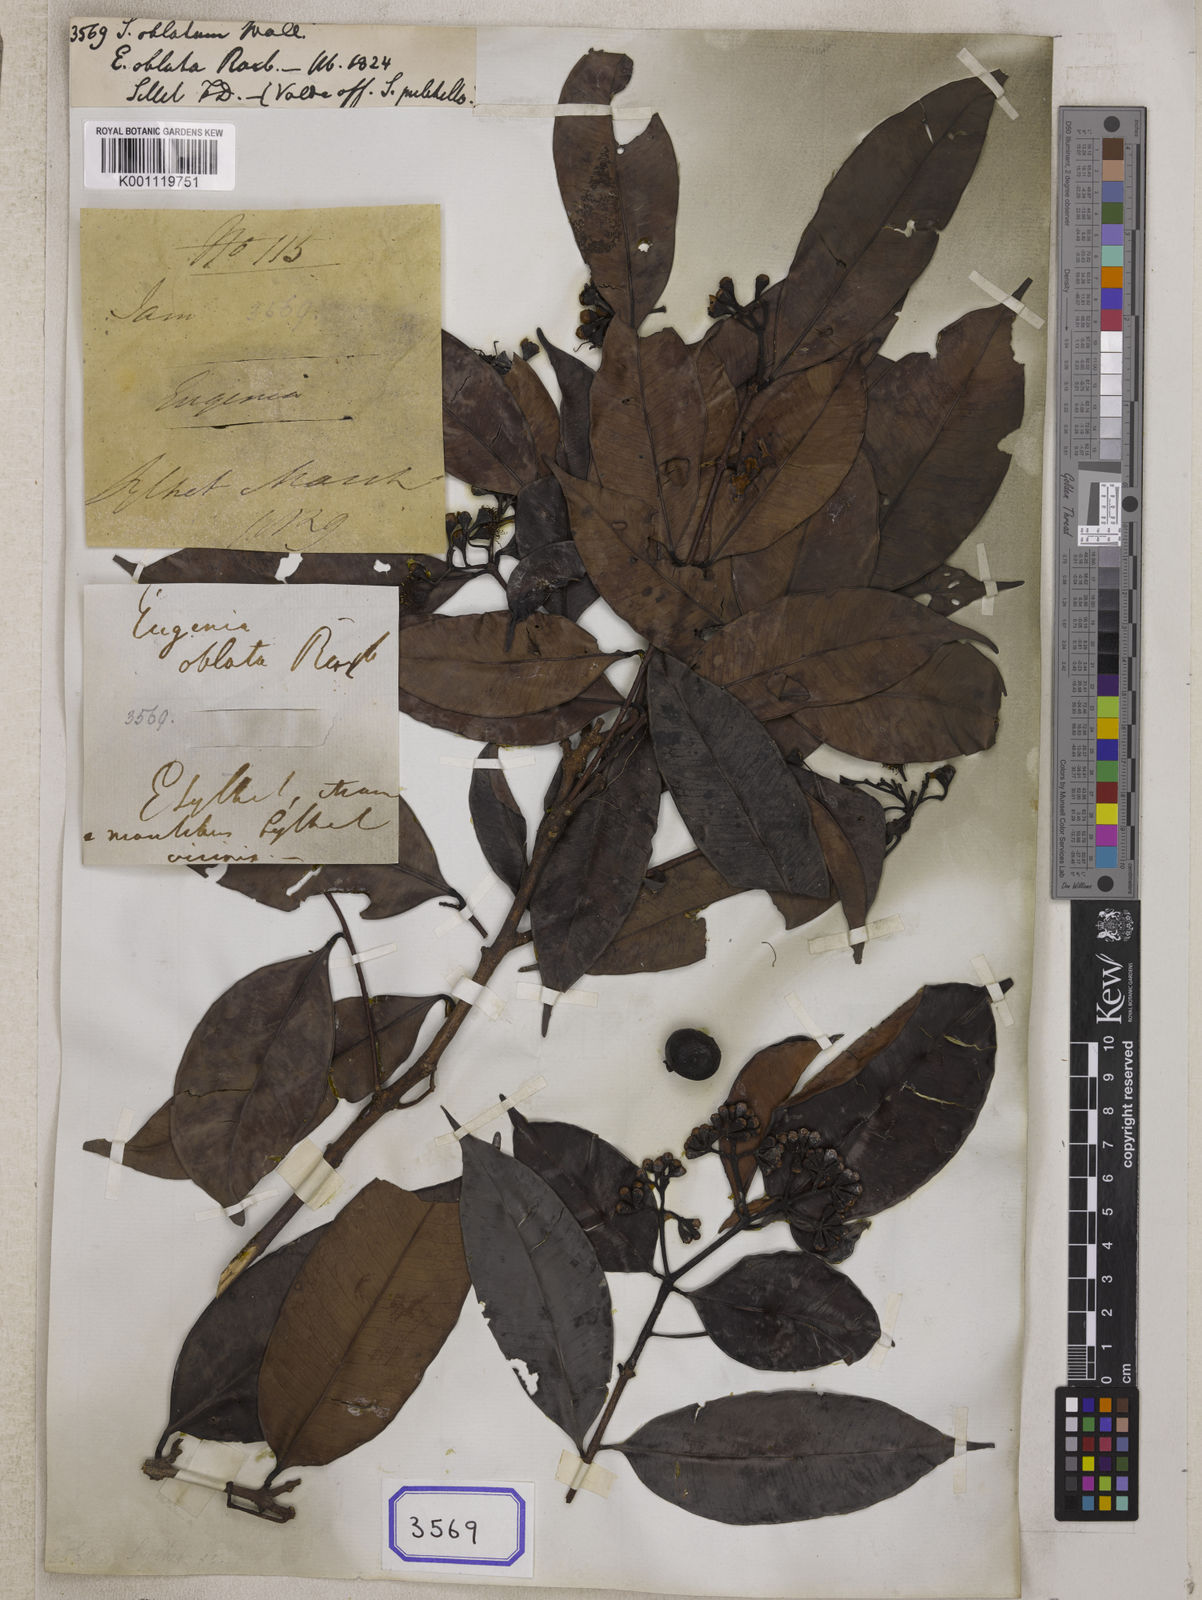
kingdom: Plantae
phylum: Tracheophyta
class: Magnoliopsida
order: Myrtales
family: Myrtaceae
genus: Syzygium
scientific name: Syzygium
